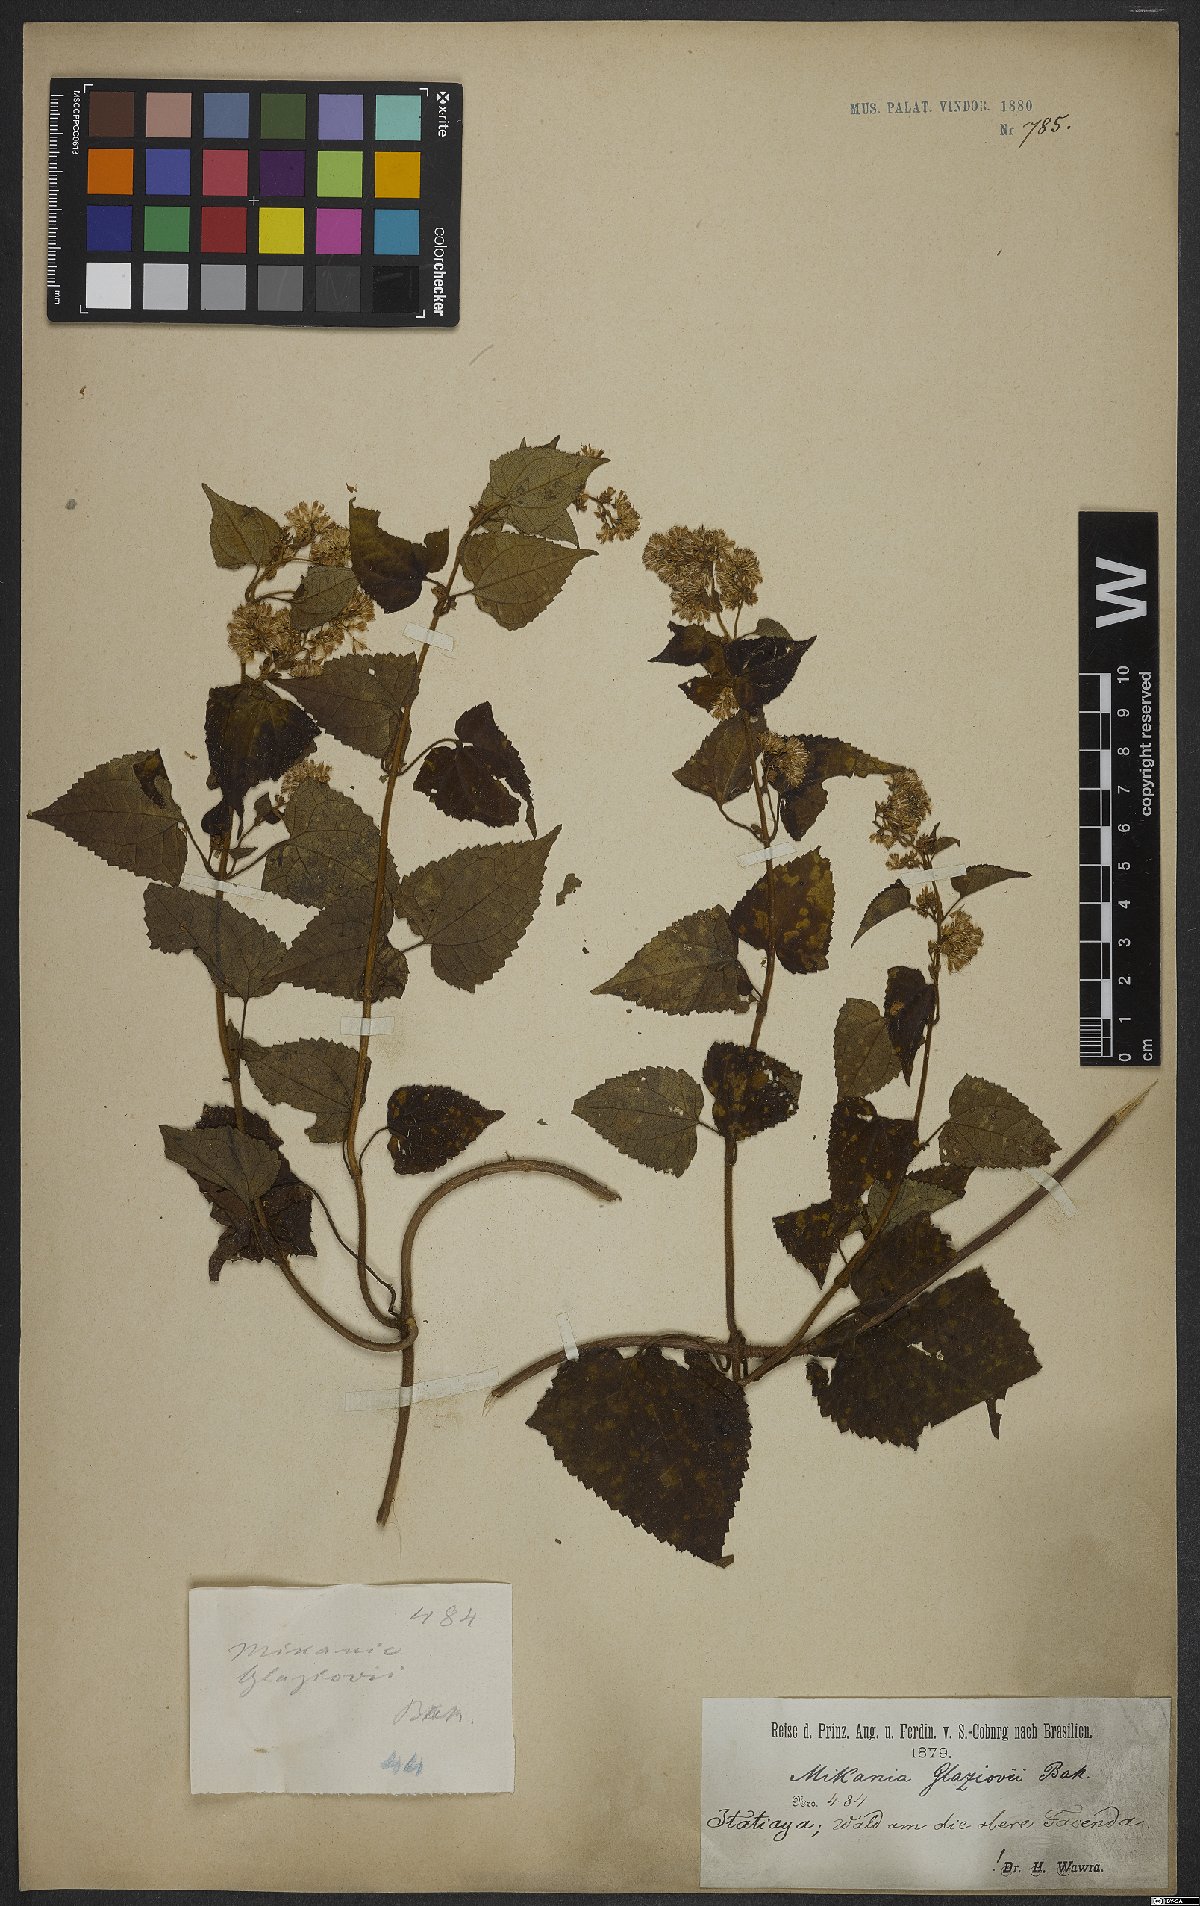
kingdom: Plantae
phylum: Tracheophyta
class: Magnoliopsida
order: Asterales
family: Asteraceae
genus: Mikania
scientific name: Mikania glaziovii
